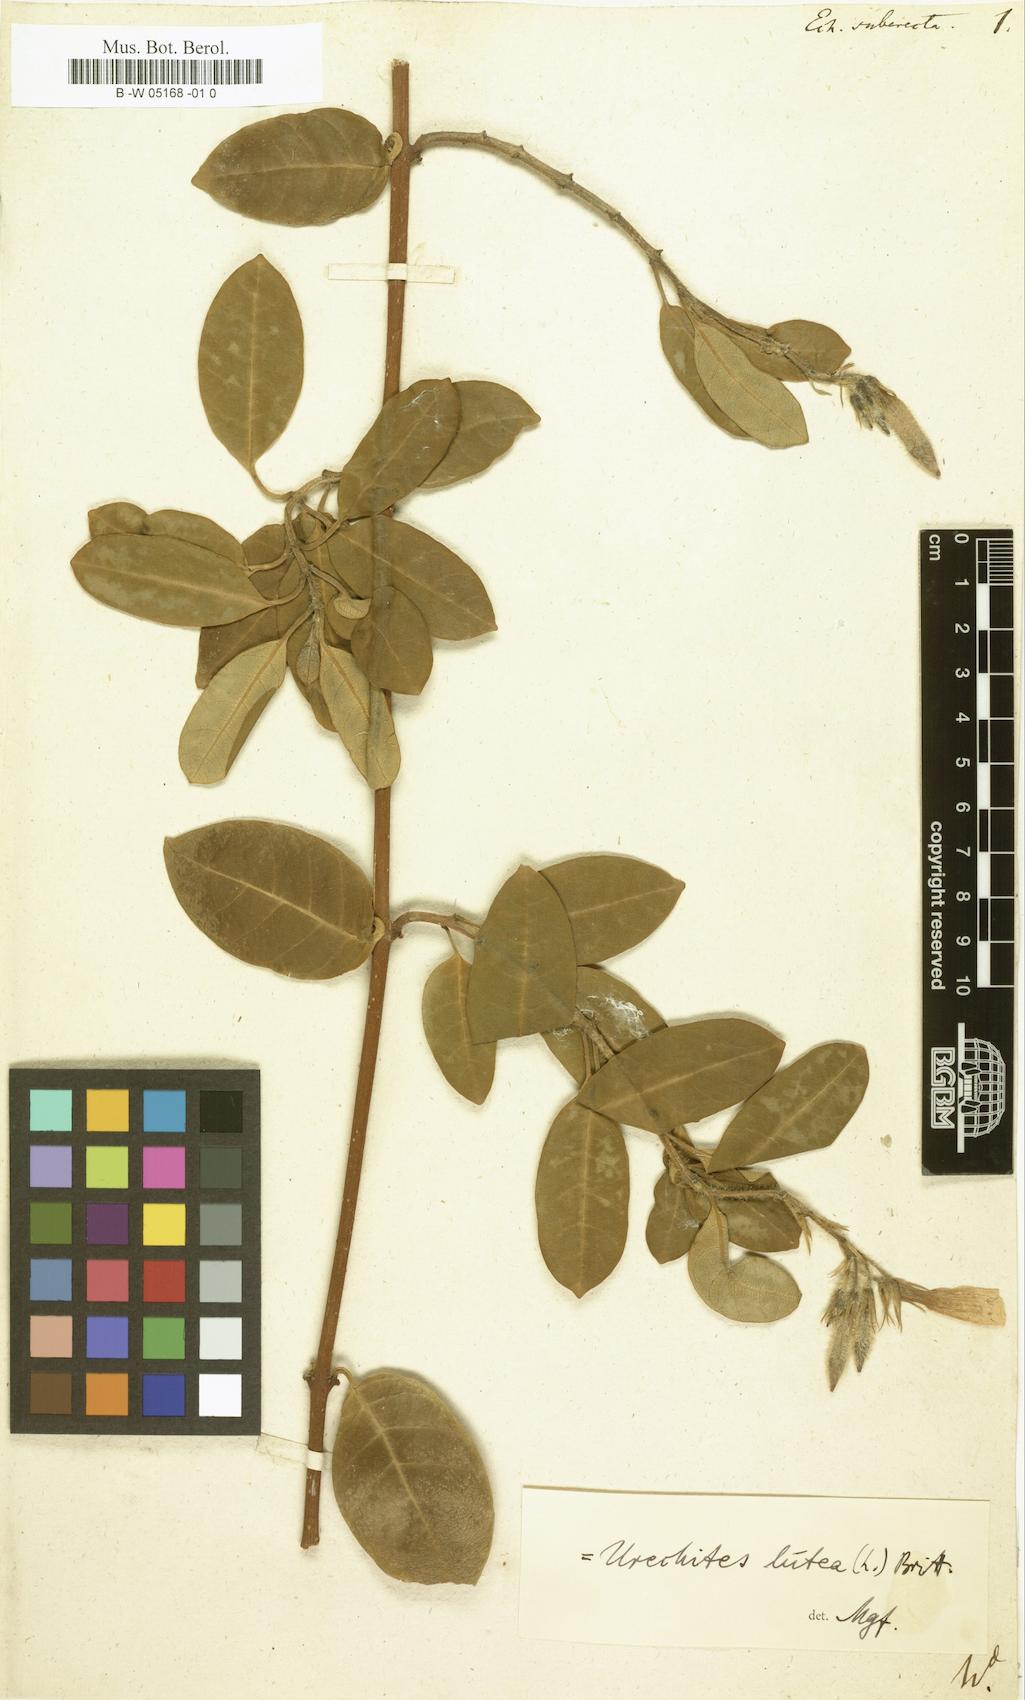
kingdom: Plantae
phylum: Tracheophyta
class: Magnoliopsida
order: Gentianales
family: Apocynaceae
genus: Pentalinon
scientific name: Pentalinon luteum
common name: Licebush
